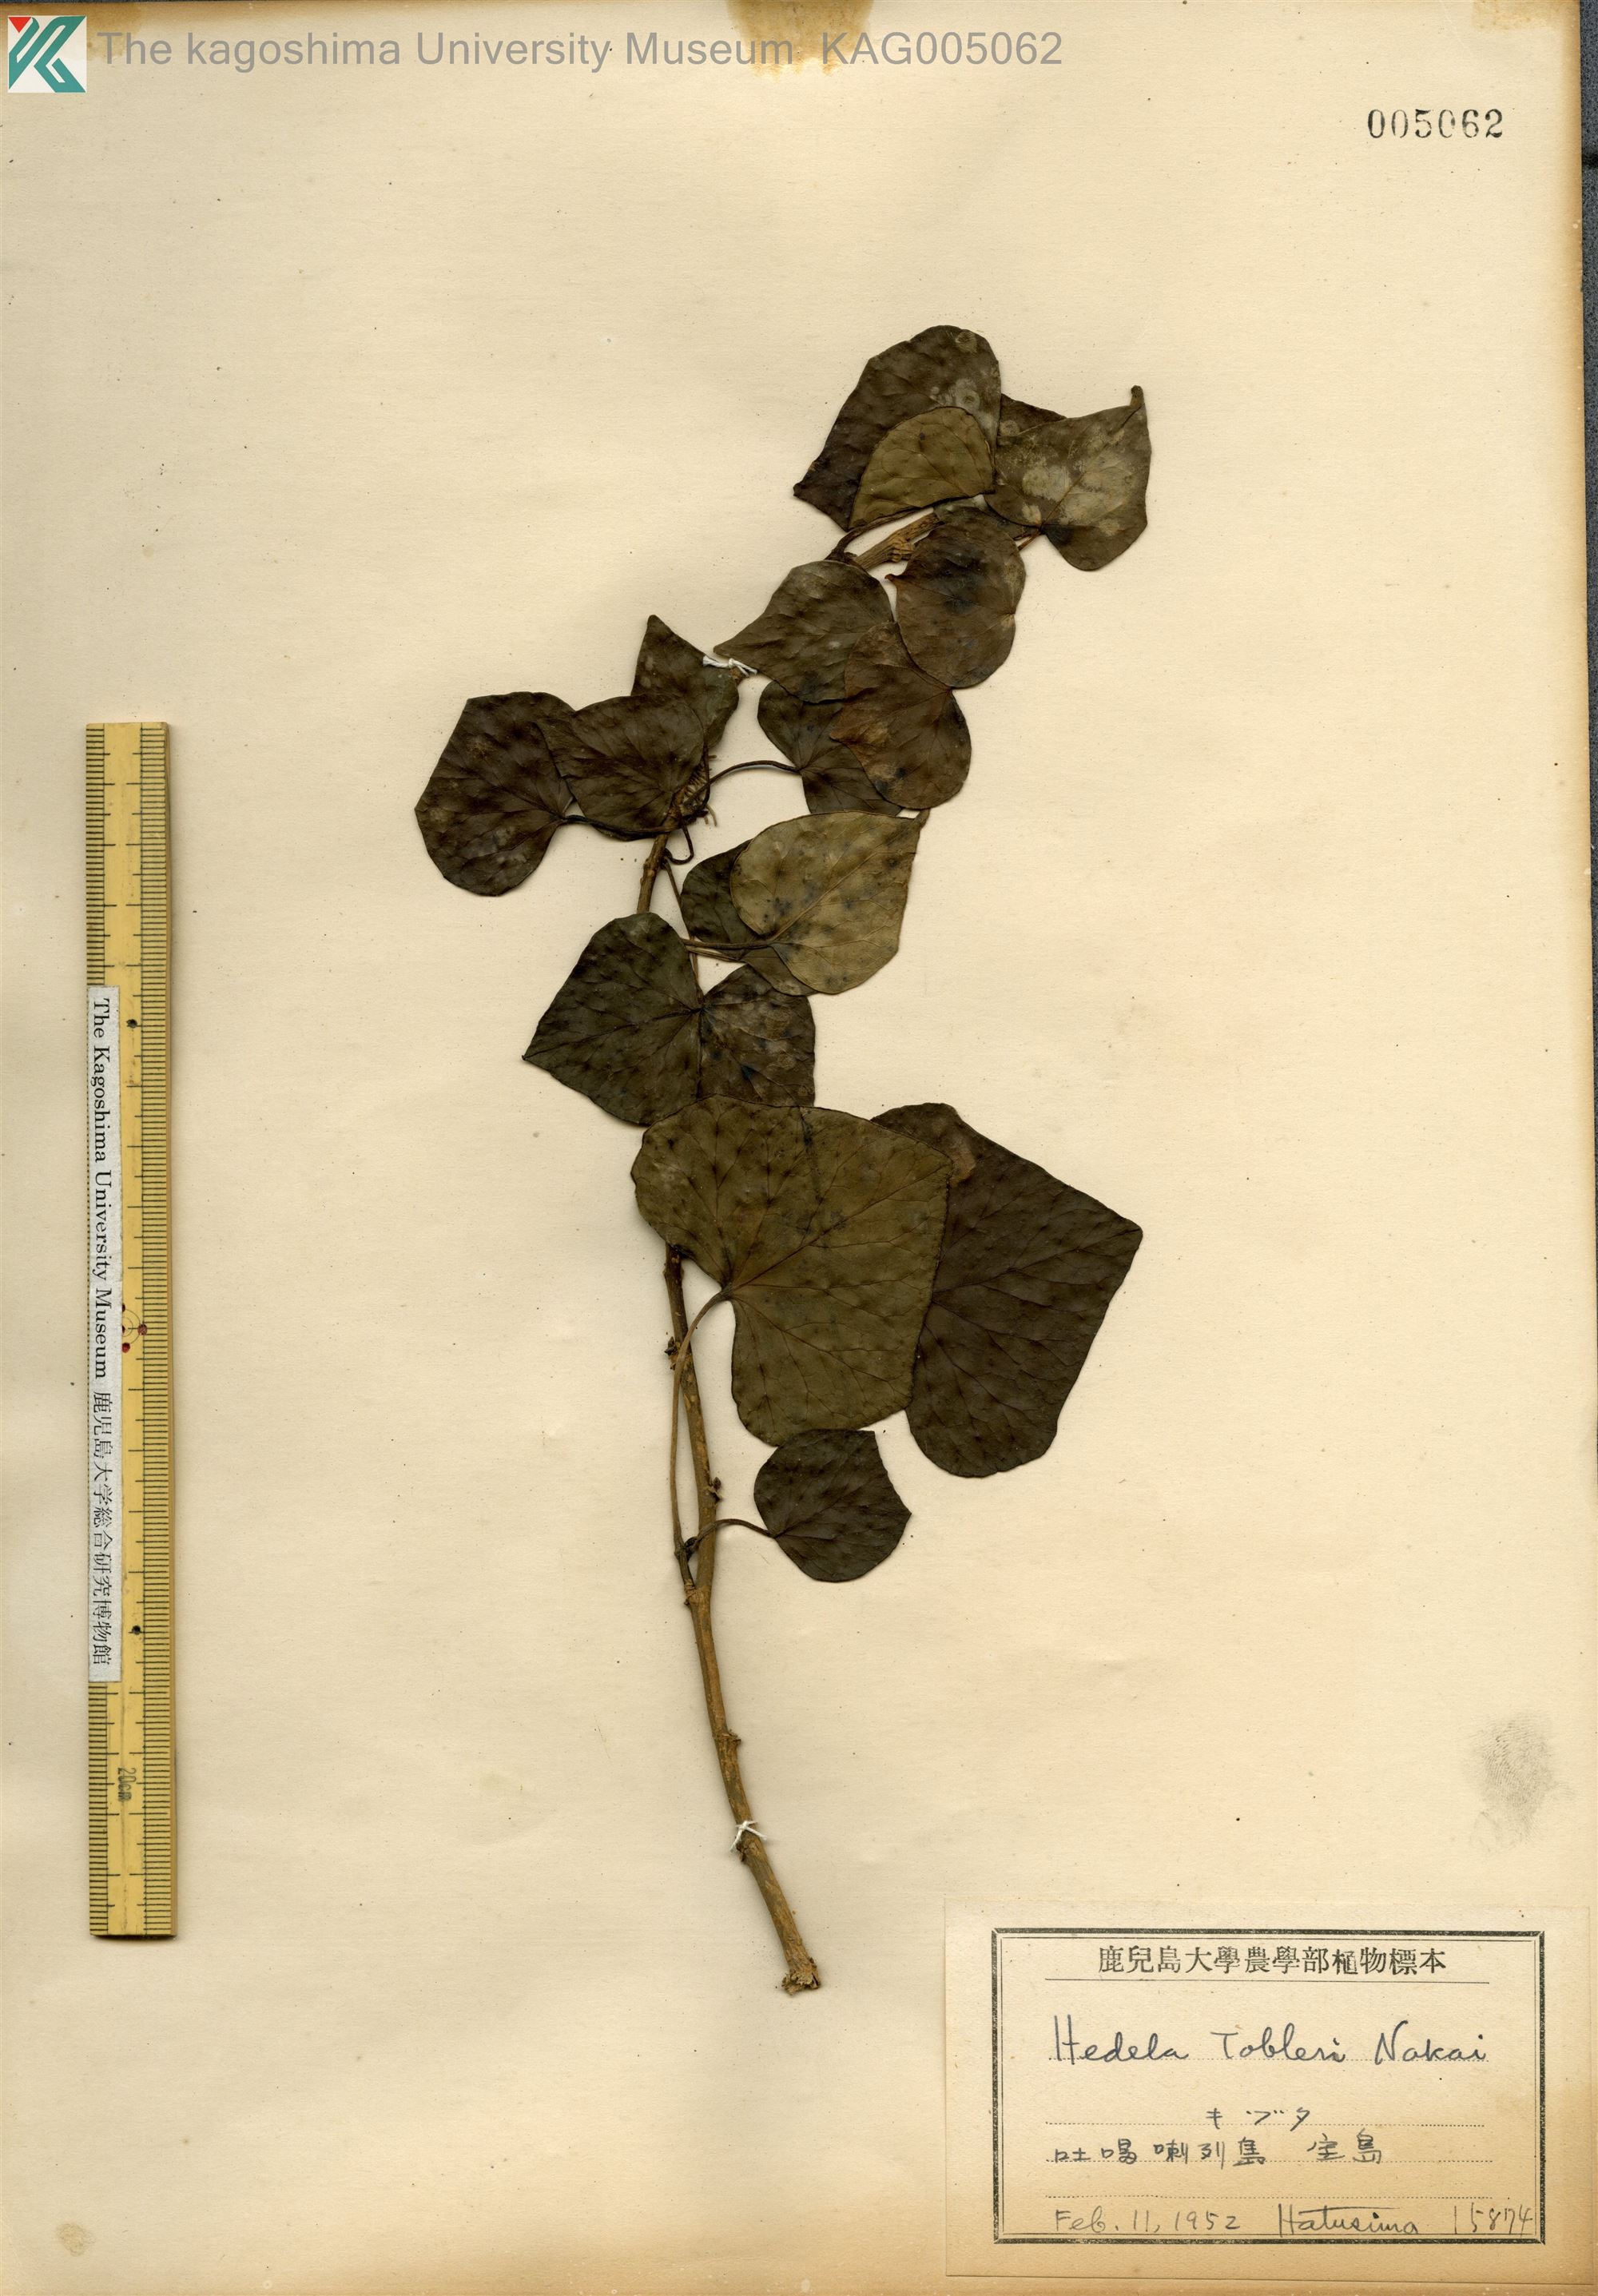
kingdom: Plantae
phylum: Tracheophyta
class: Magnoliopsida
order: Apiales
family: Araliaceae
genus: Hedera
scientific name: Hedera rhombea
